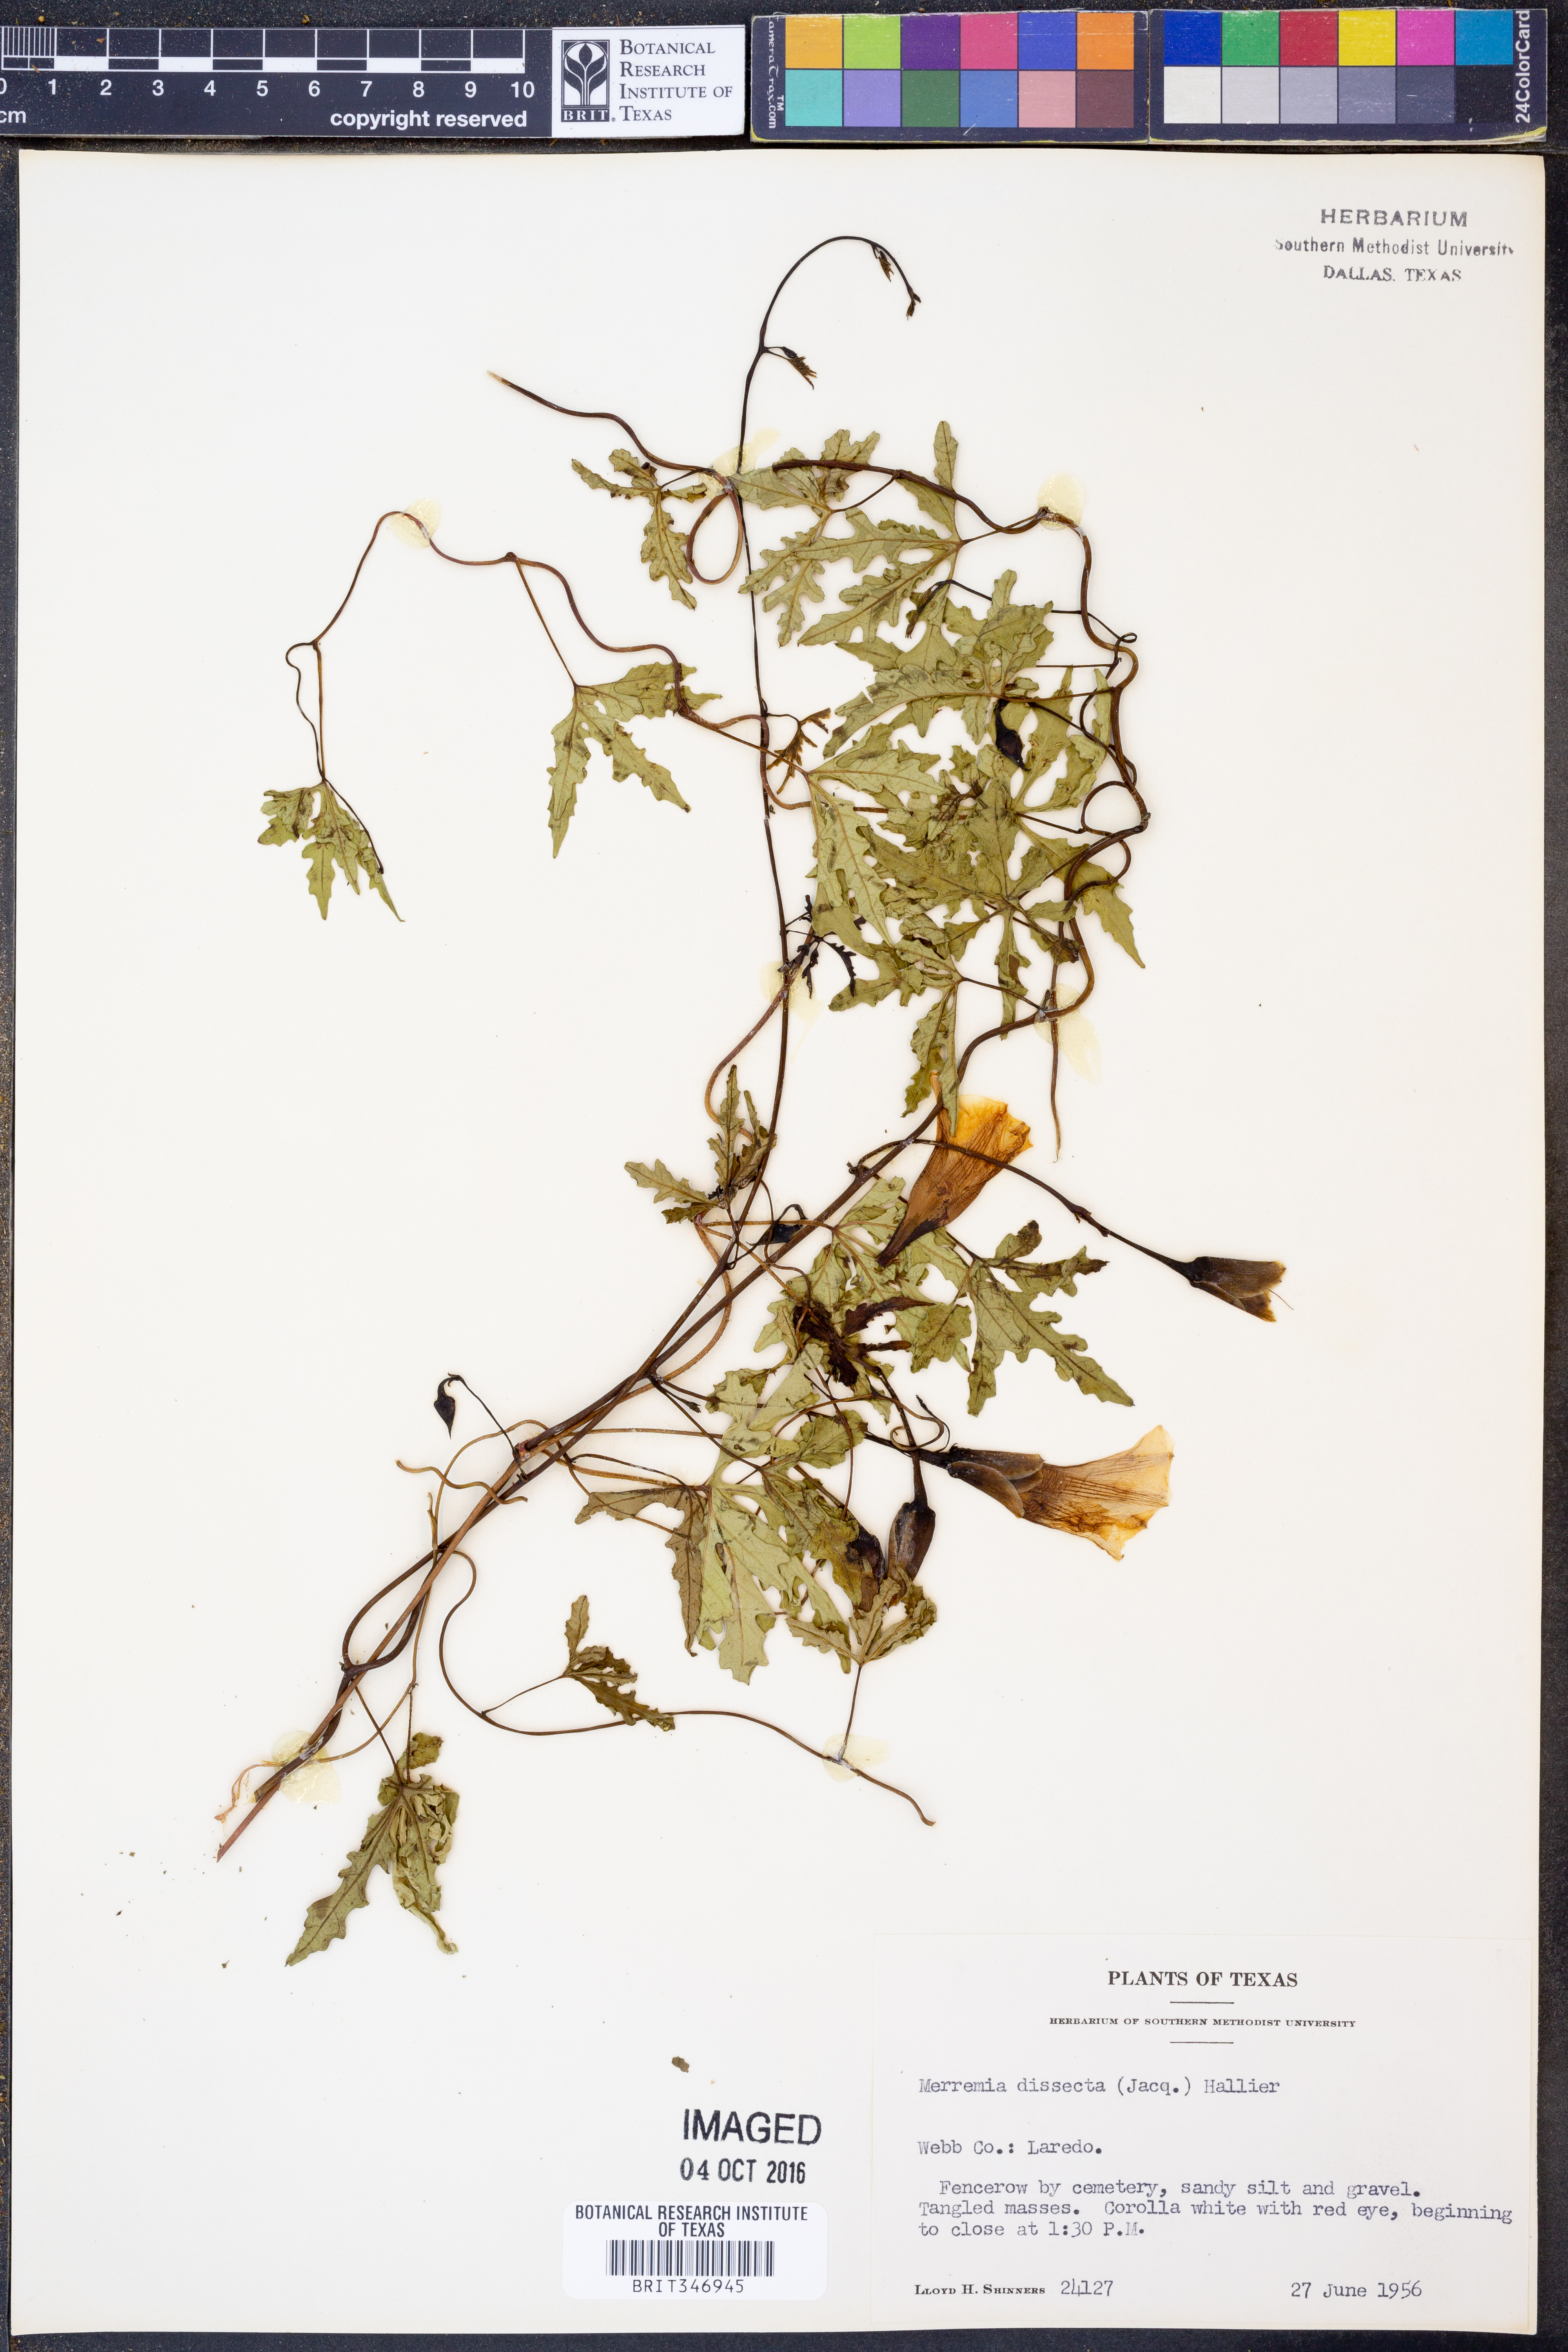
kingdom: Plantae
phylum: Tracheophyta
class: Magnoliopsida
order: Solanales
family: Convolvulaceae
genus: Distimake
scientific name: Distimake dissectus
